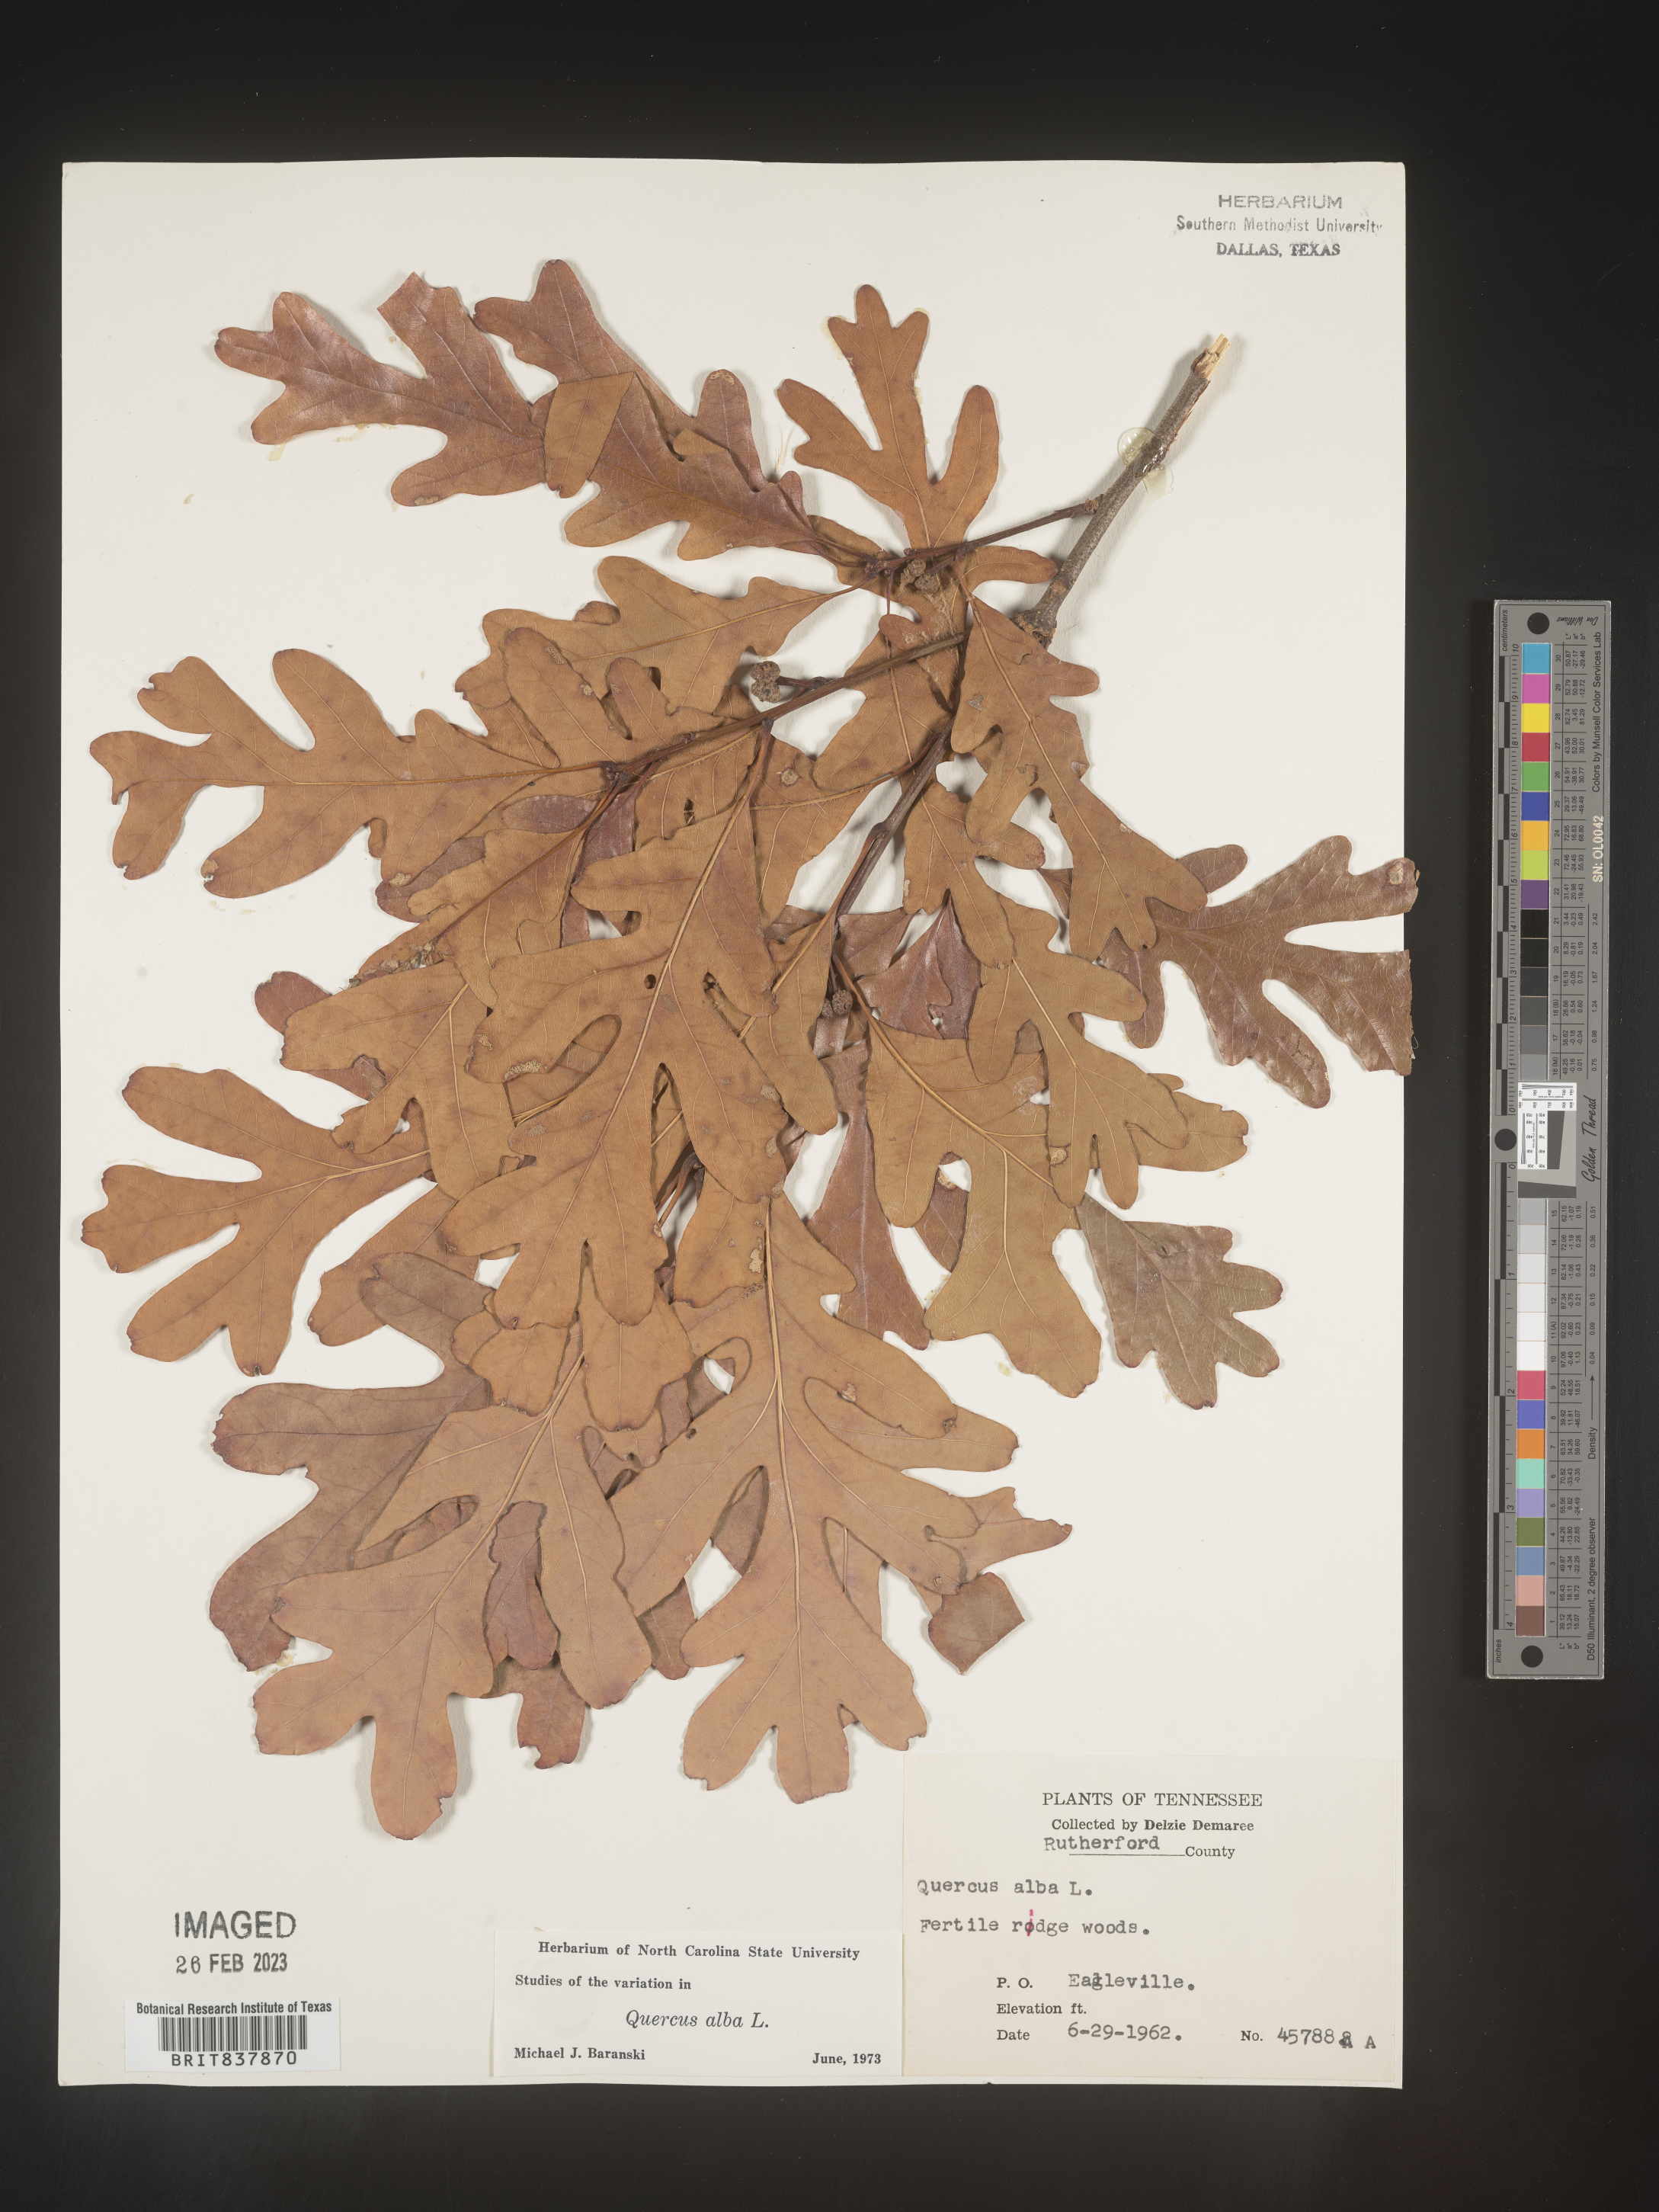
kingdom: Plantae
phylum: Tracheophyta
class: Magnoliopsida
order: Fagales
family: Fagaceae
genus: Quercus
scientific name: Quercus alba
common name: White oak
